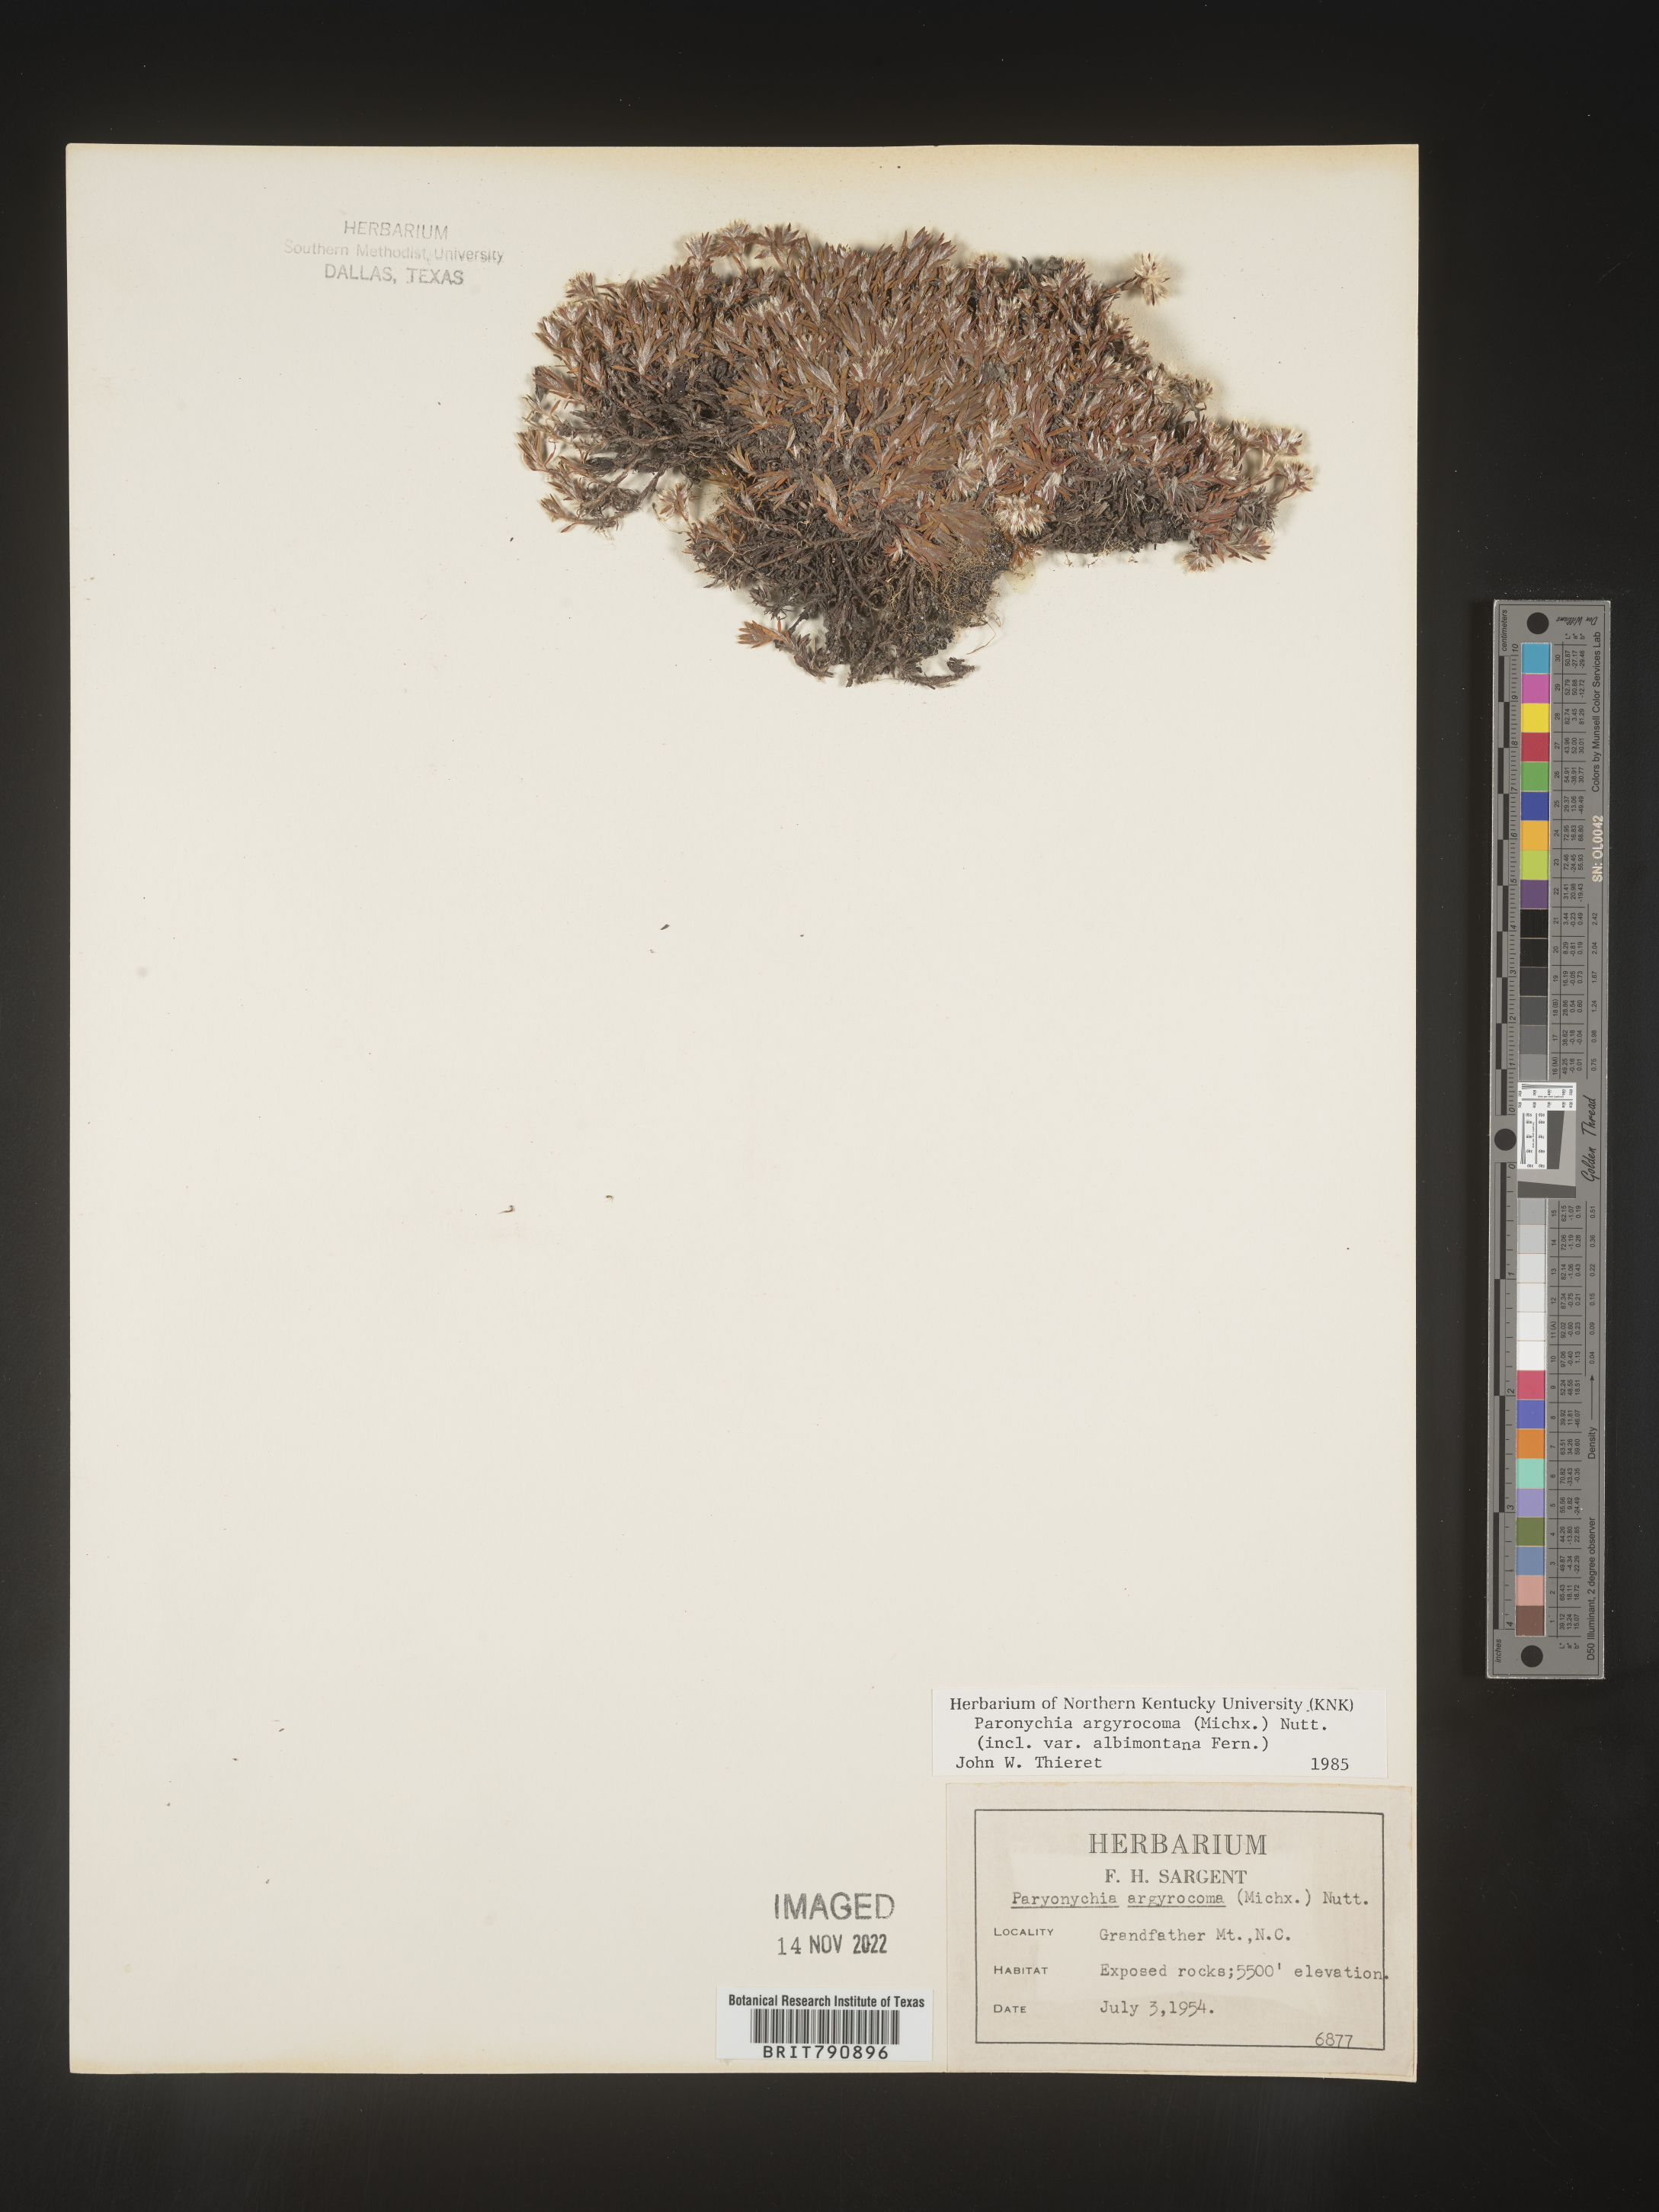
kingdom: Plantae
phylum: Tracheophyta
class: Magnoliopsida
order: Caryophyllales
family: Caryophyllaceae
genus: Paronychia
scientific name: Paronychia argyrocoma
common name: Silverling
